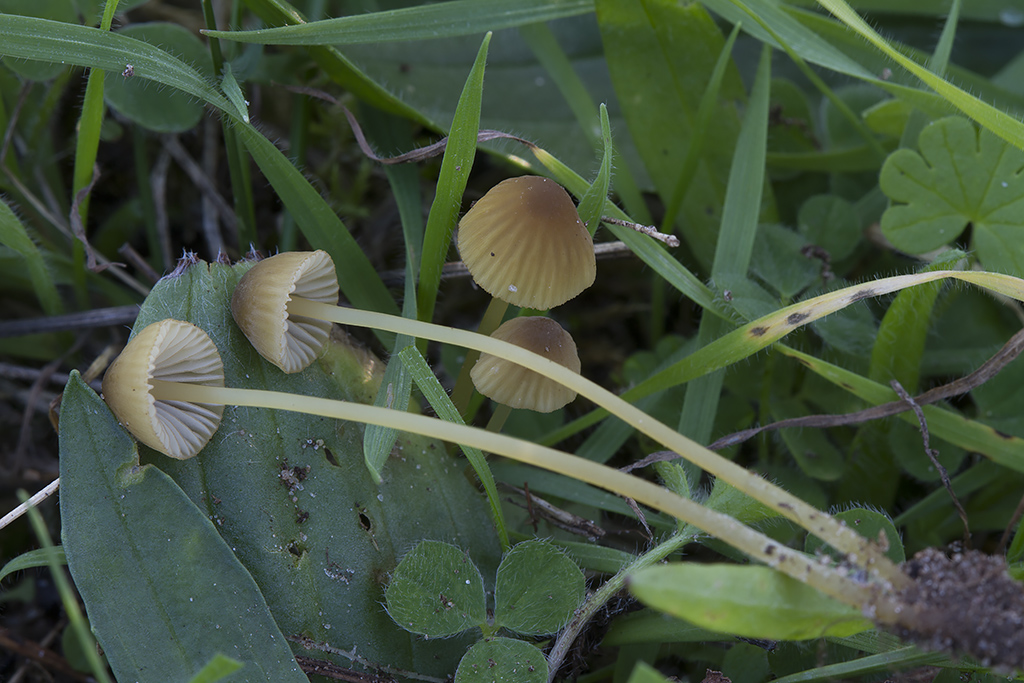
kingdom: Fungi
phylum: Basidiomycota
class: Agaricomycetes
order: Agaricales
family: Mycenaceae
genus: Mycena
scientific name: Mycena olivaceomarginata
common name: brunægget huesvamp
